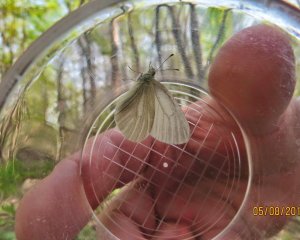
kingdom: Animalia
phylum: Arthropoda
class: Insecta
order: Lepidoptera
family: Pieridae
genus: Pieris
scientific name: Pieris virginiensis
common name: West Virginia White
